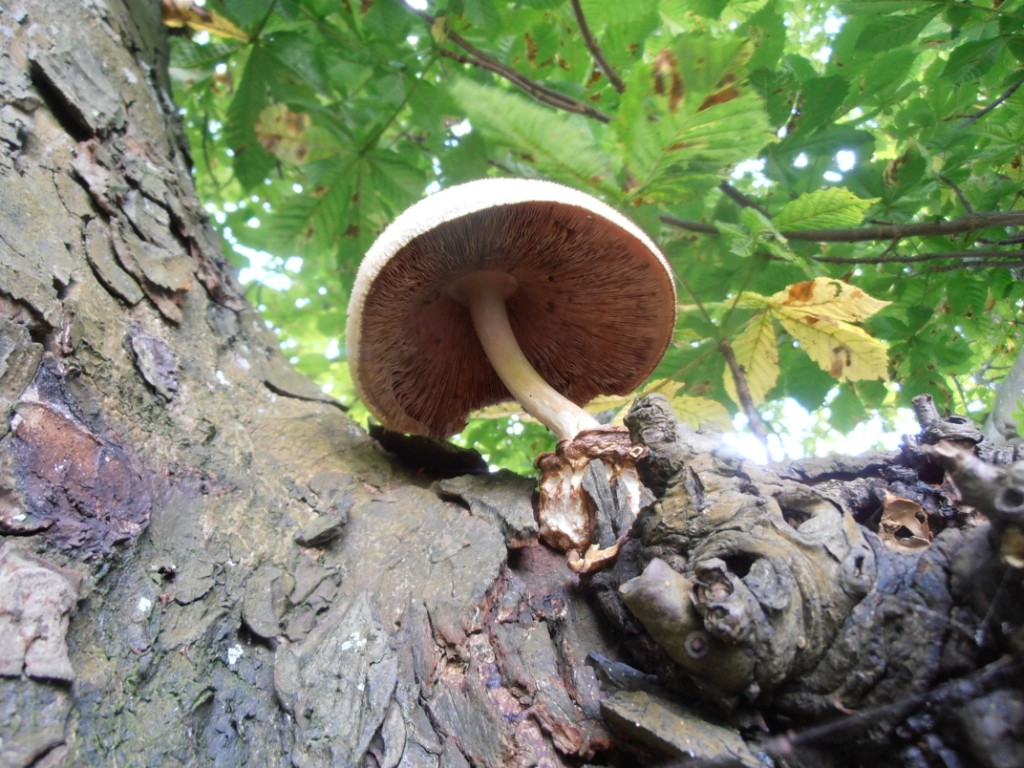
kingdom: Fungi
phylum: Basidiomycota
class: Agaricomycetes
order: Agaricales
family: Pluteaceae
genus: Volvariella
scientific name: Volvariella bombycina
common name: silkehåret posesvamp
